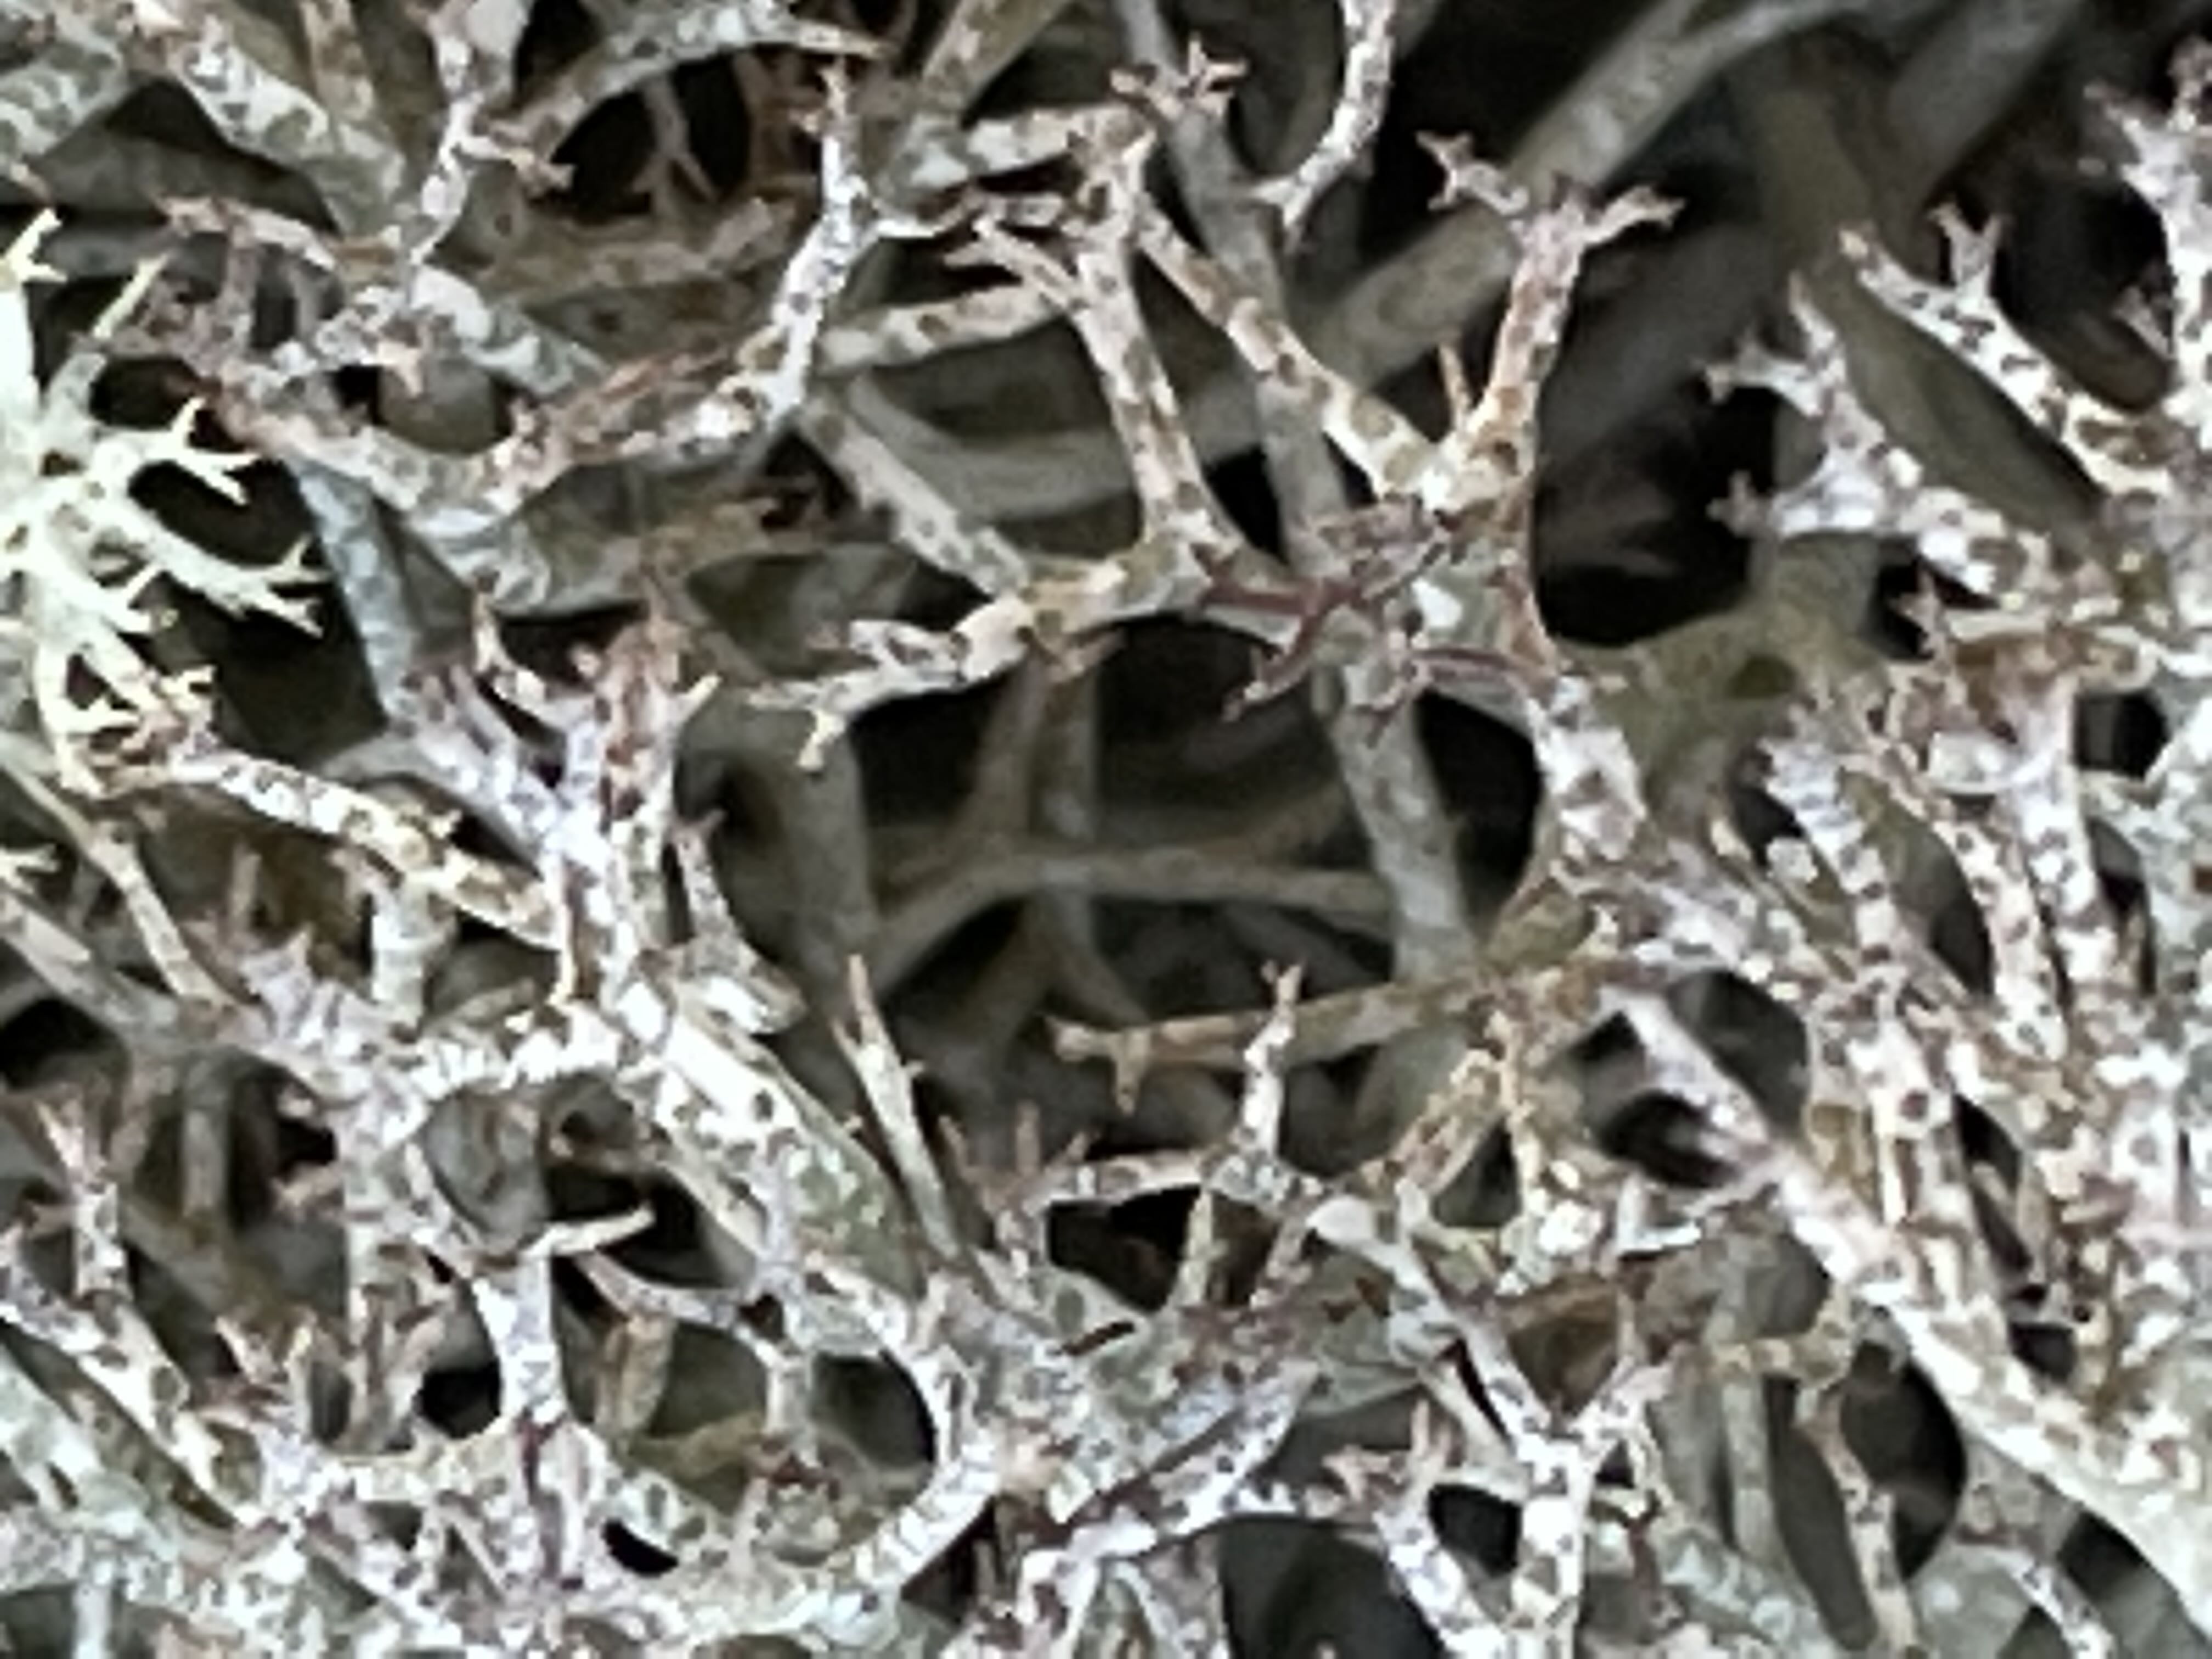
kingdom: Fungi
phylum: Ascomycota
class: Lecanoromycetes
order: Lecanorales
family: Cladoniaceae
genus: Cladonia
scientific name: Cladonia rangiformis
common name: spættet bægerlav
